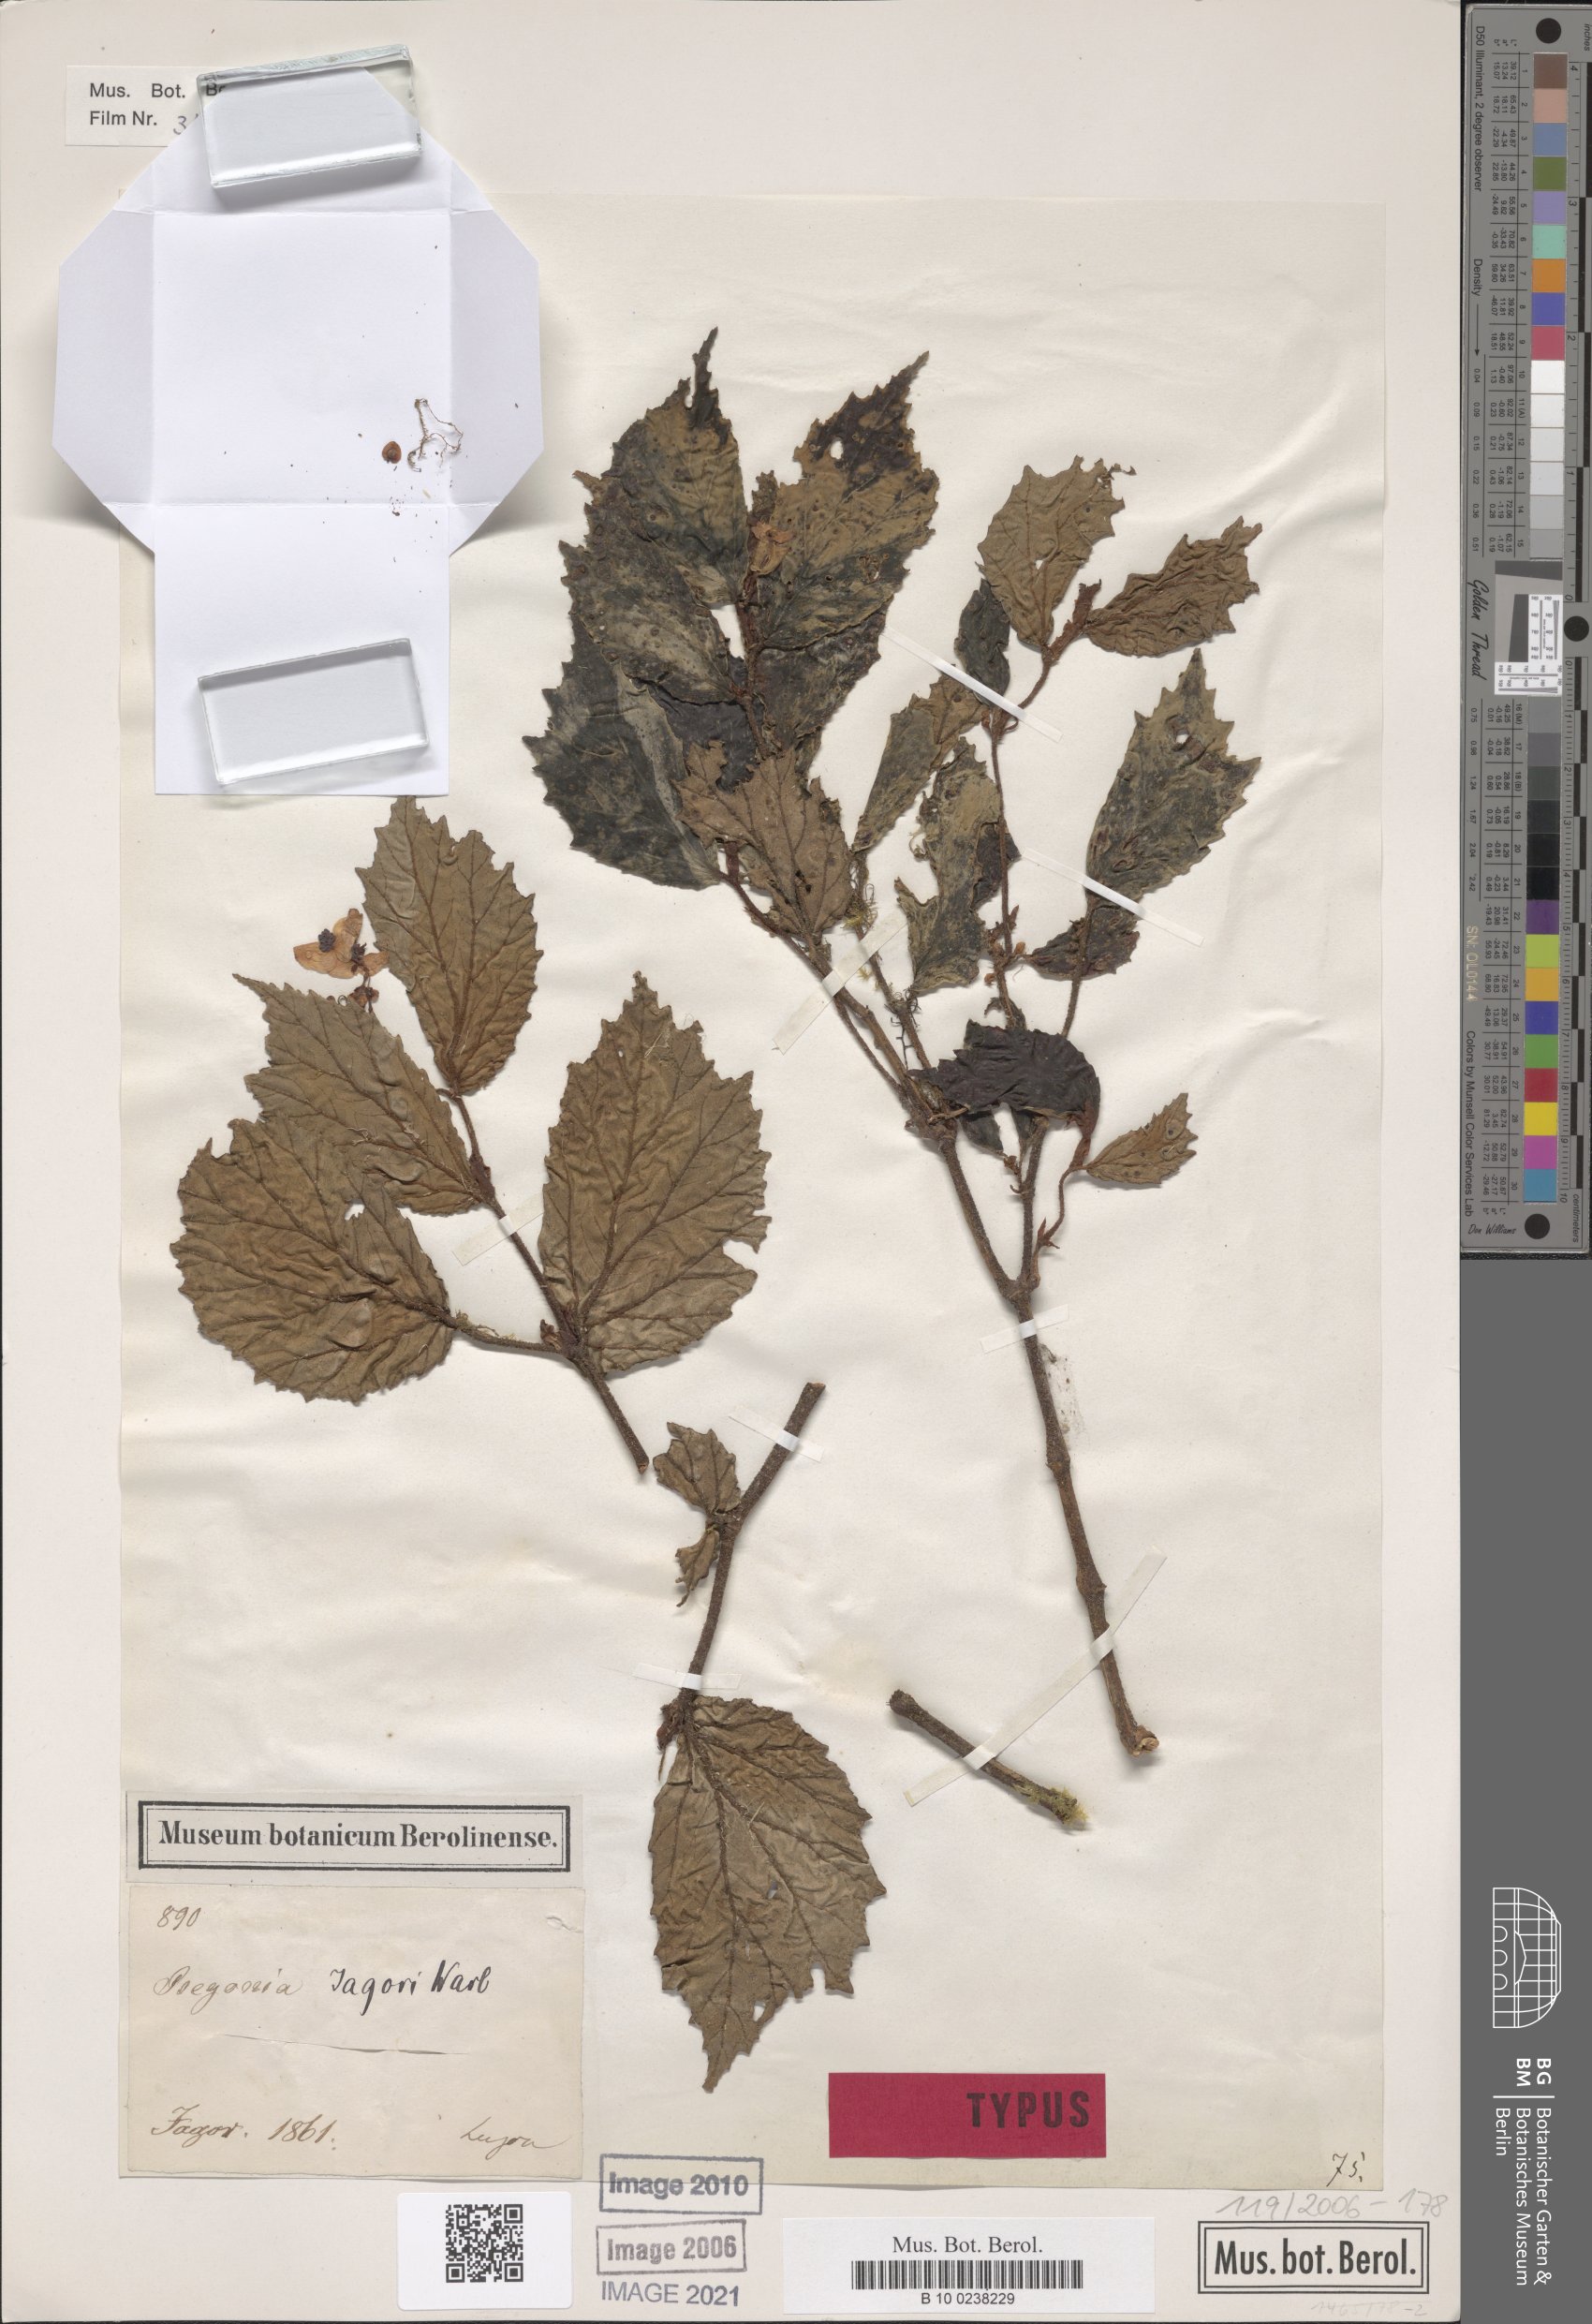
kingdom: Plantae
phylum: Tracheophyta
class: Magnoliopsida
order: Cucurbitales
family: Begoniaceae
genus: Begonia
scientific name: Begonia jagorii
